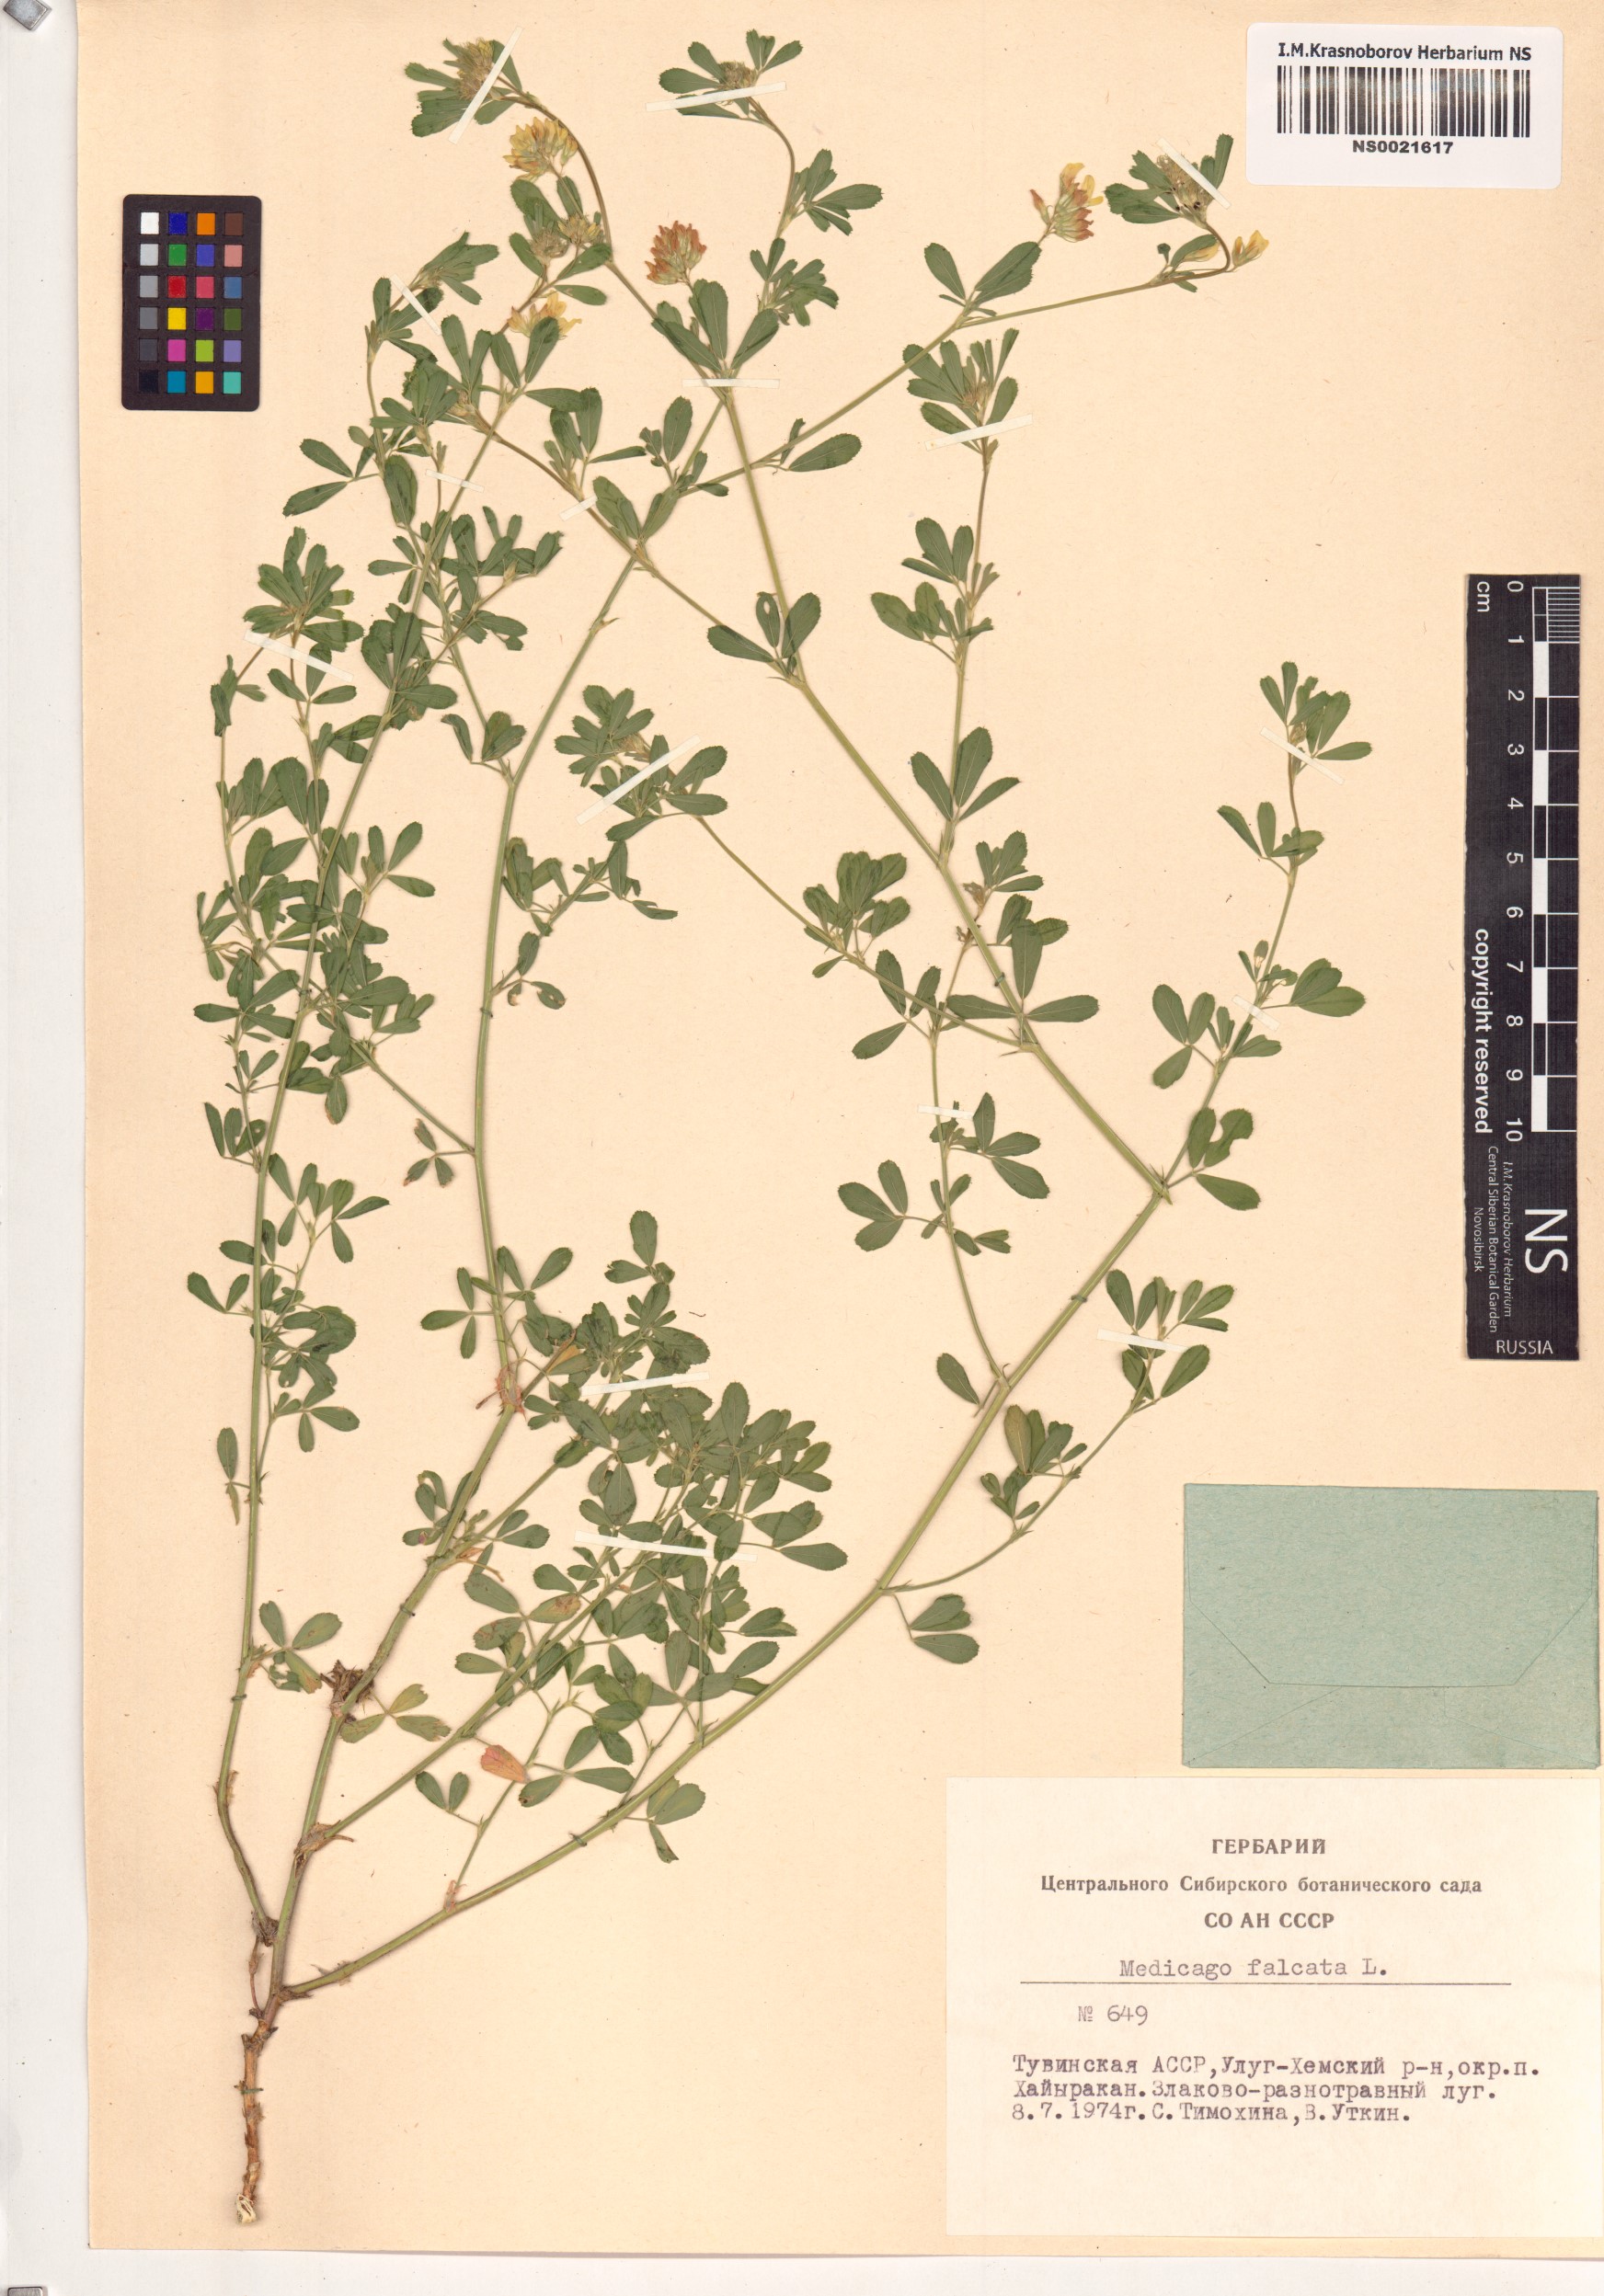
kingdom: Plantae
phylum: Tracheophyta
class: Magnoliopsida
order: Fabales
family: Fabaceae
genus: Medicago
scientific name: Medicago falcata
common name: Sickle medick
